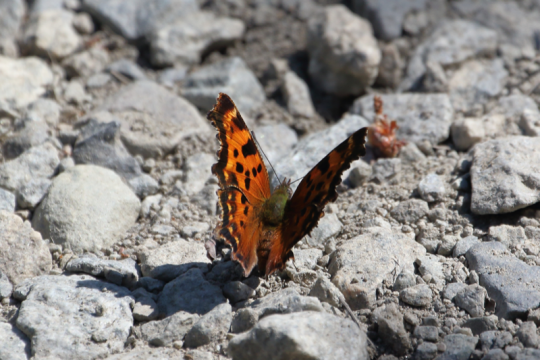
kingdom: Animalia
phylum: Arthropoda
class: Insecta
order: Lepidoptera
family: Nymphalidae
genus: Polygonia
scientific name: Polygonia faunus
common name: Green Comma
